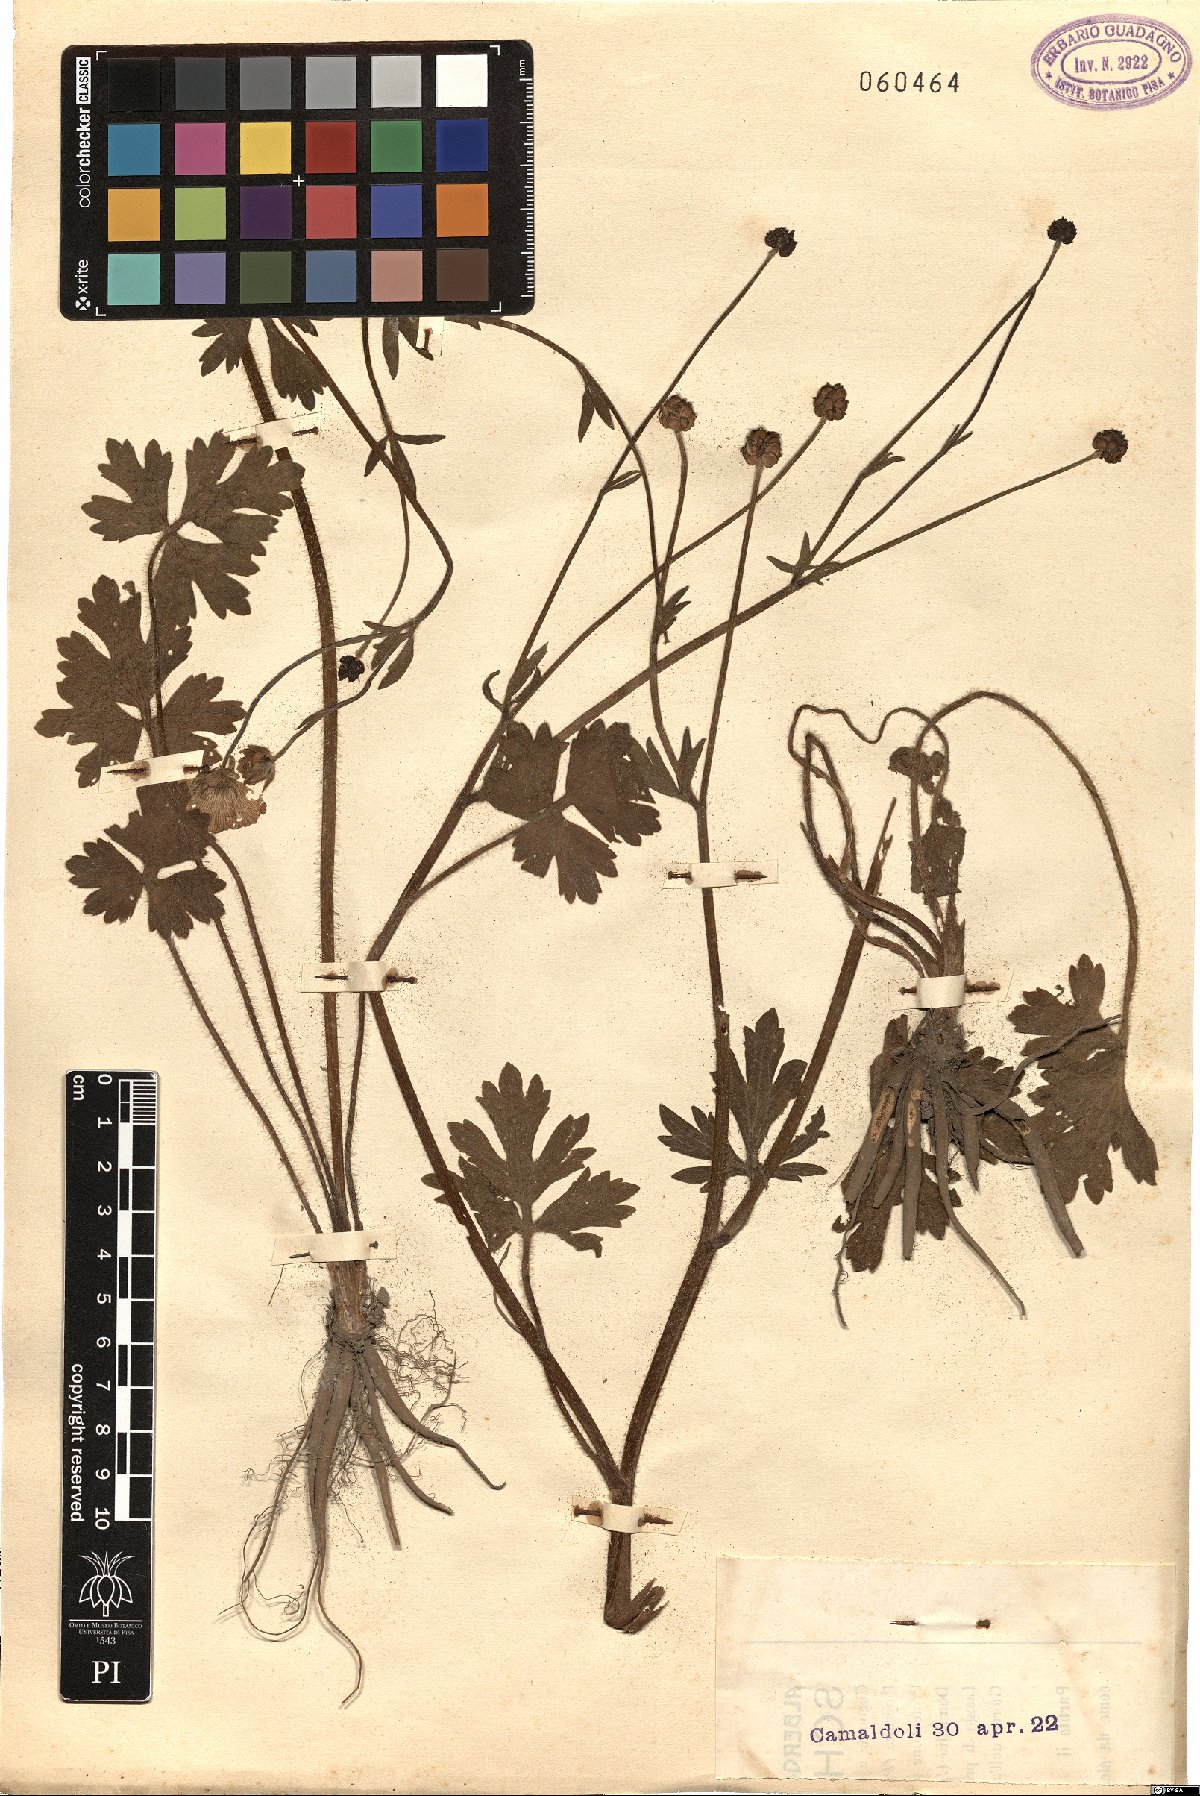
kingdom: Plantae
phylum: Tracheophyta
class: Magnoliopsida
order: Ranunculales
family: Ranunculaceae
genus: Ranunculus
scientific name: Ranunculus
